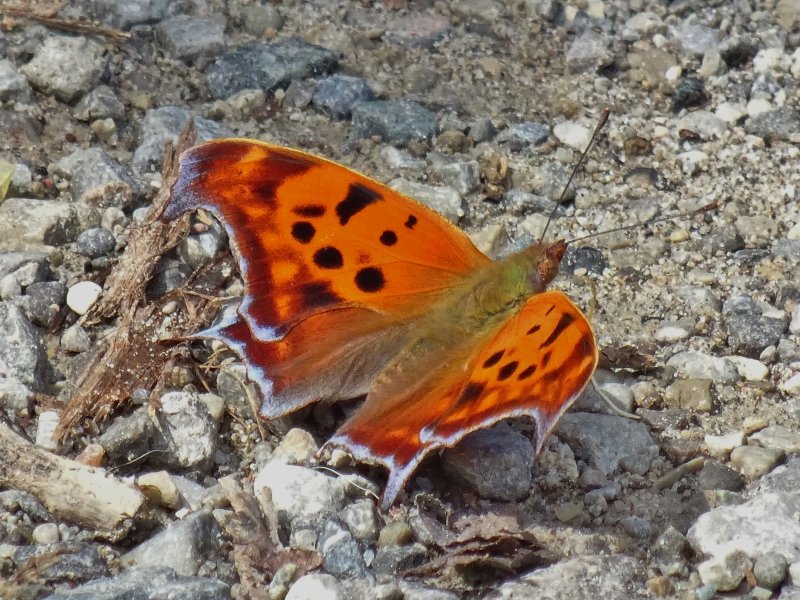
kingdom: Animalia
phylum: Arthropoda
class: Insecta
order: Lepidoptera
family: Nymphalidae
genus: Polygonia
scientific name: Polygonia interrogationis
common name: Question Mark
